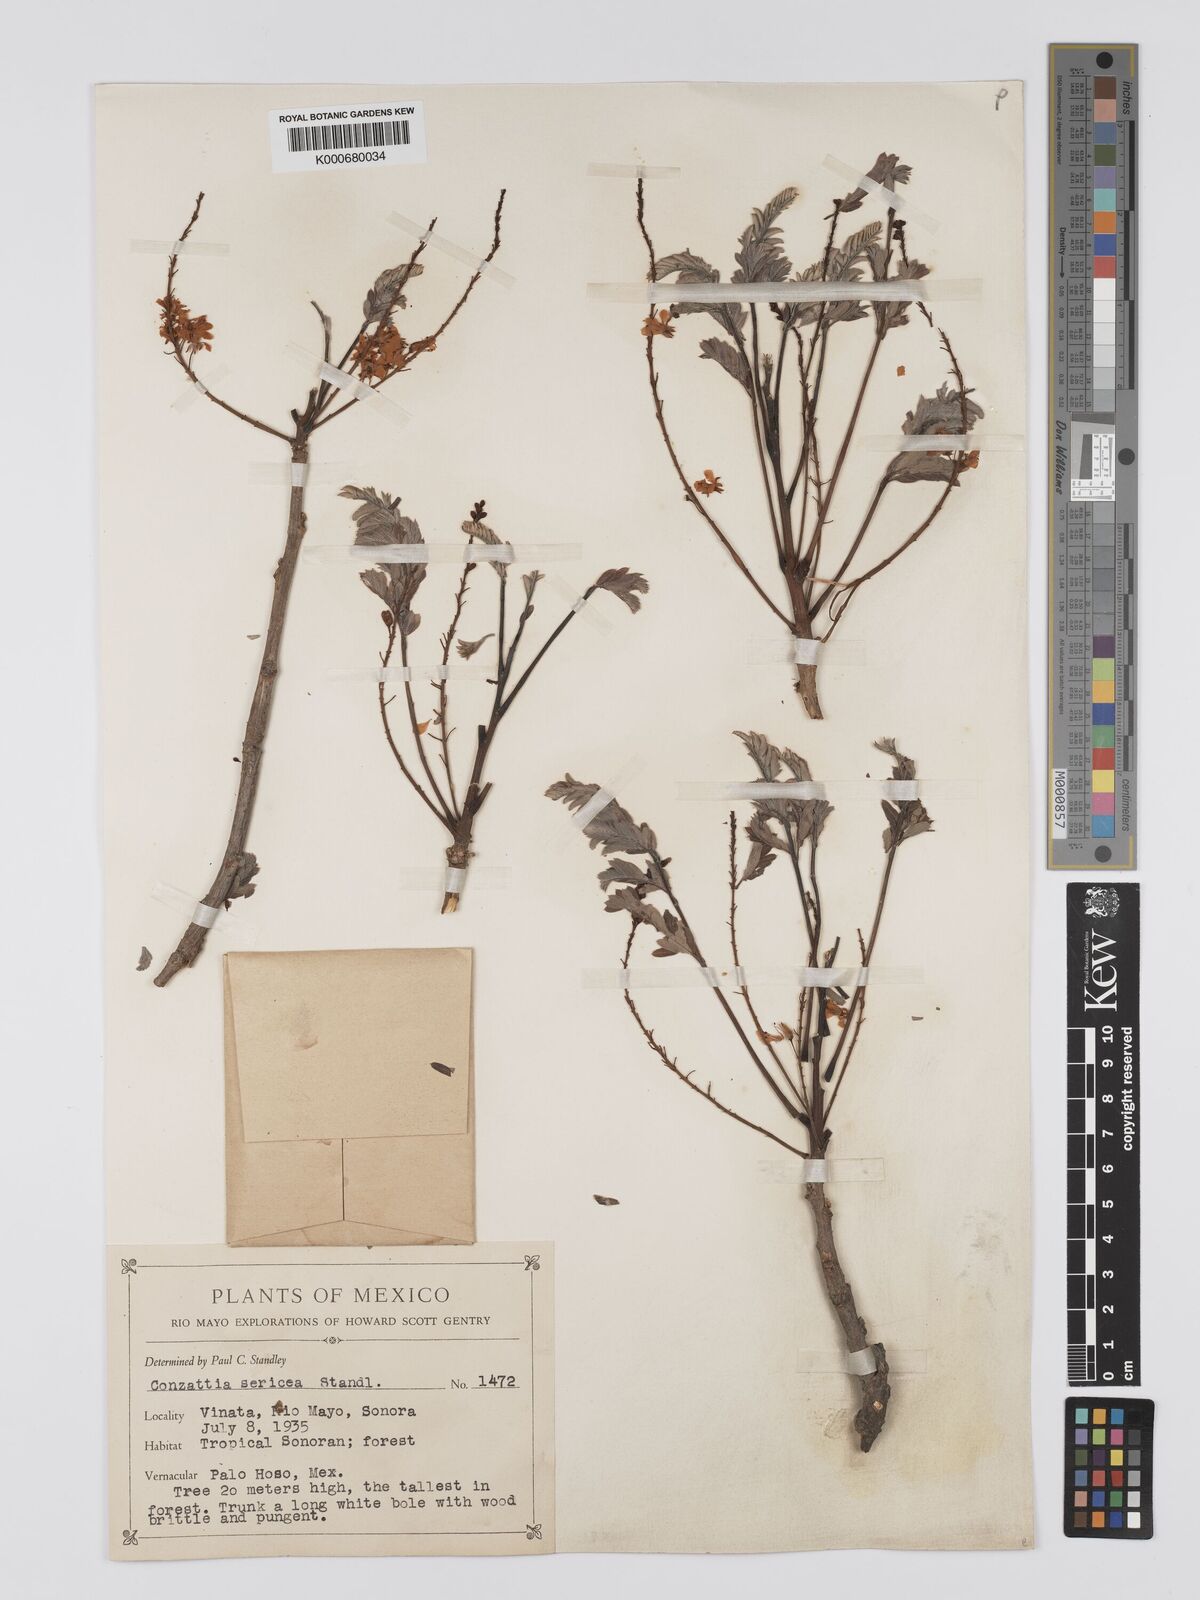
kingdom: Plantae
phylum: Tracheophyta
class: Magnoliopsida
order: Fabales
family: Fabaceae
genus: Conzattia
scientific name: Conzattia sericea
